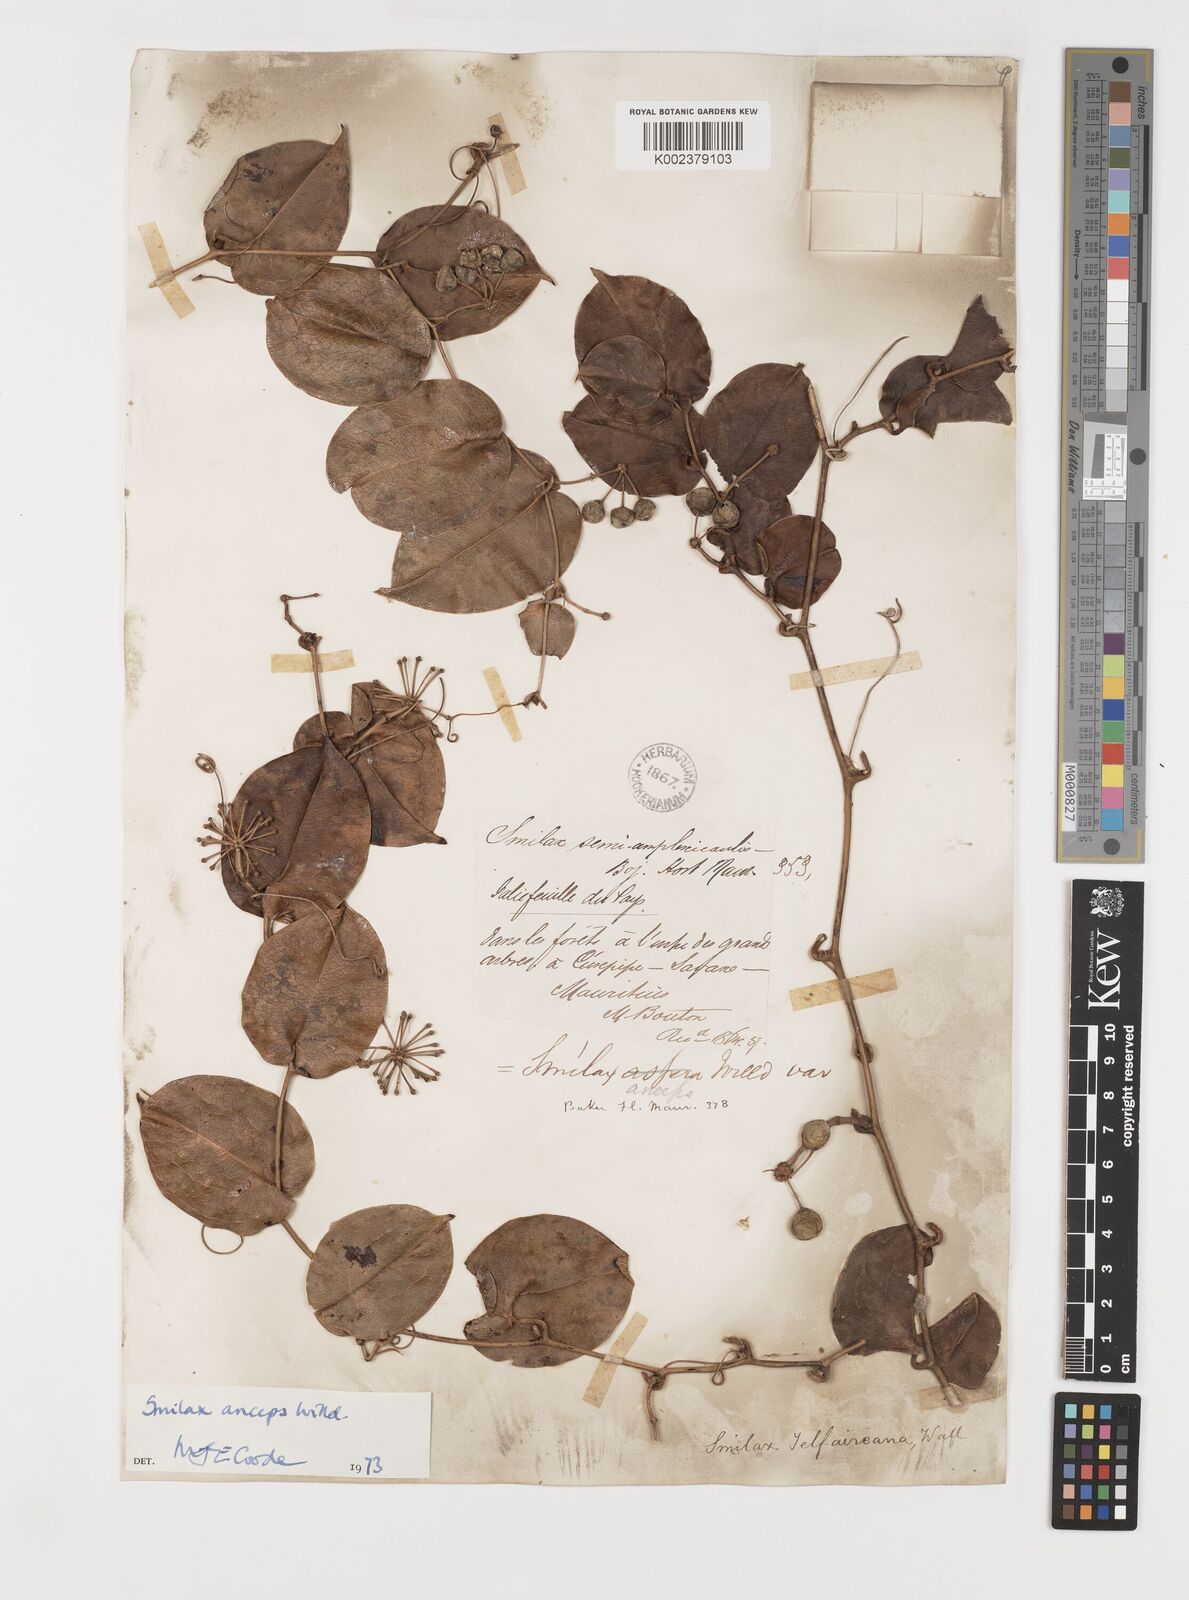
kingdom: Plantae
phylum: Tracheophyta
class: Liliopsida
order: Liliales
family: Smilacaceae
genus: Smilax
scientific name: Smilax anceps
